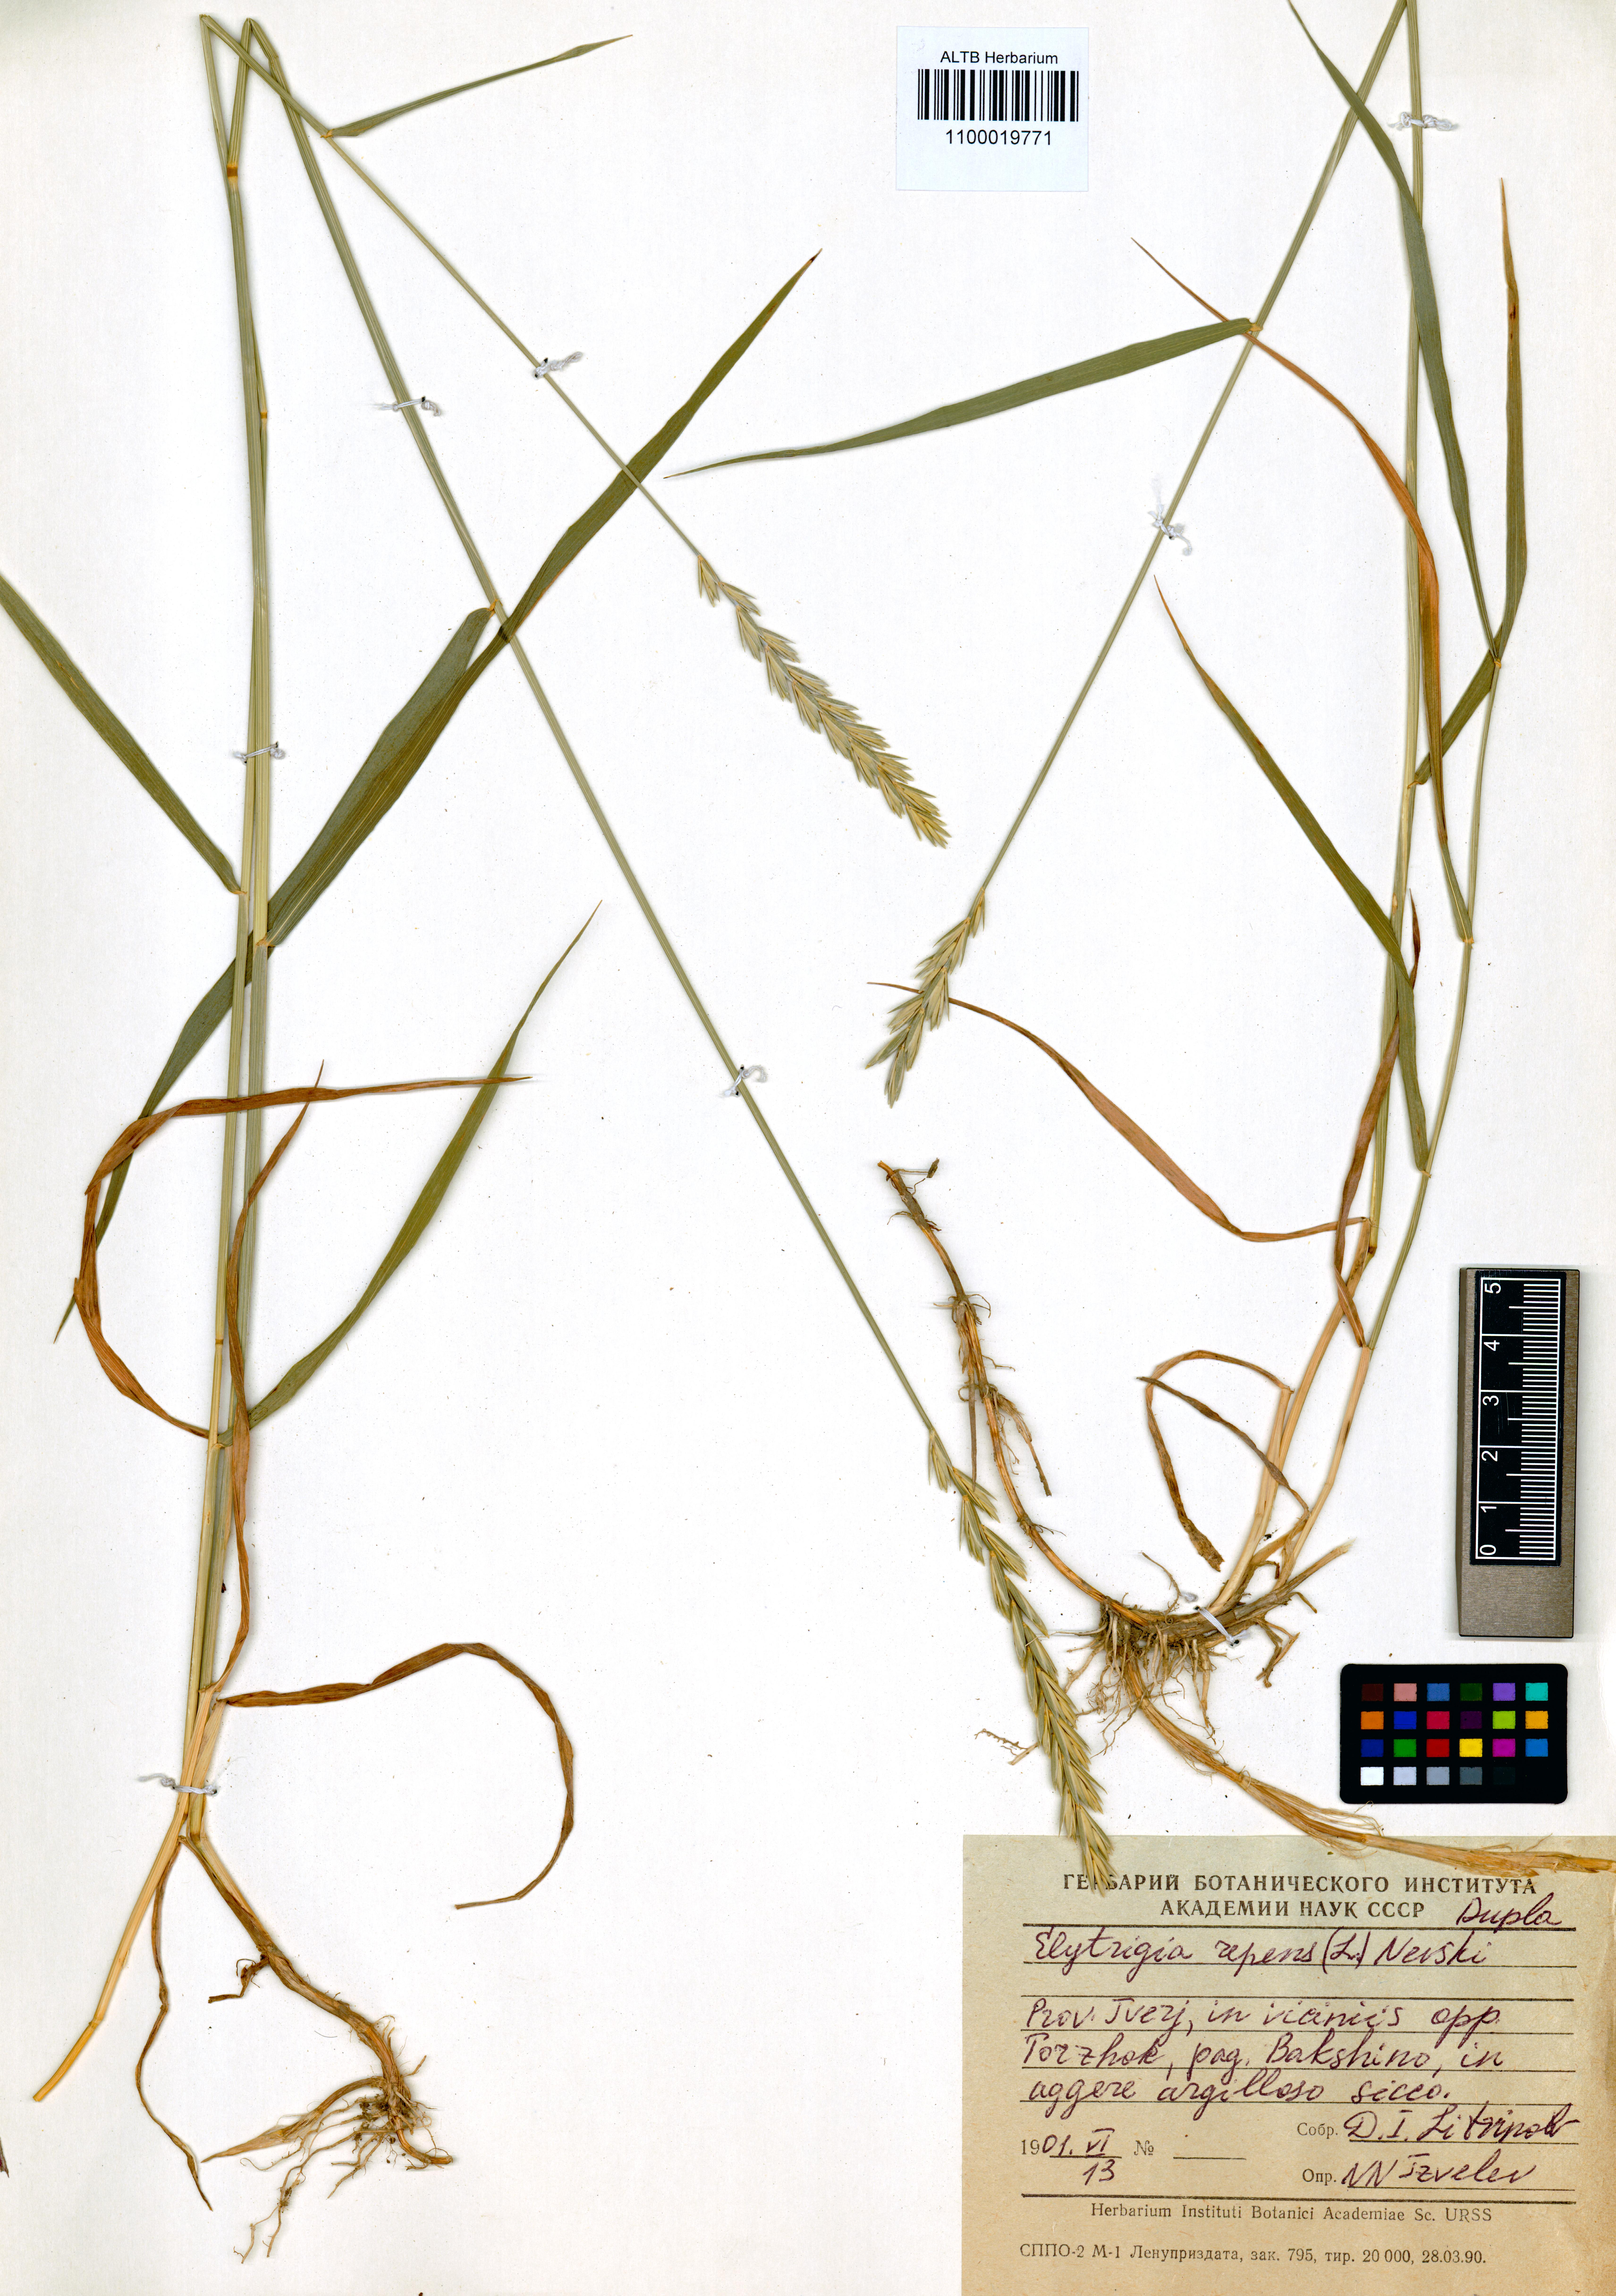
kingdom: Plantae
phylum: Tracheophyta
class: Liliopsida
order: Poales
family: Poaceae
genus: Elymus
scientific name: Elymus repens
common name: Quackgrass
